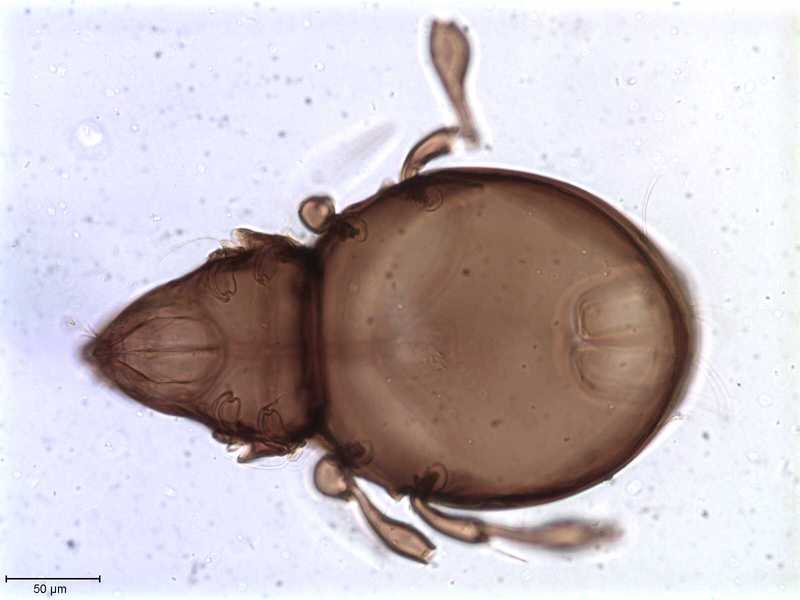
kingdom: Animalia
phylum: Arthropoda
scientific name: Arthropoda
